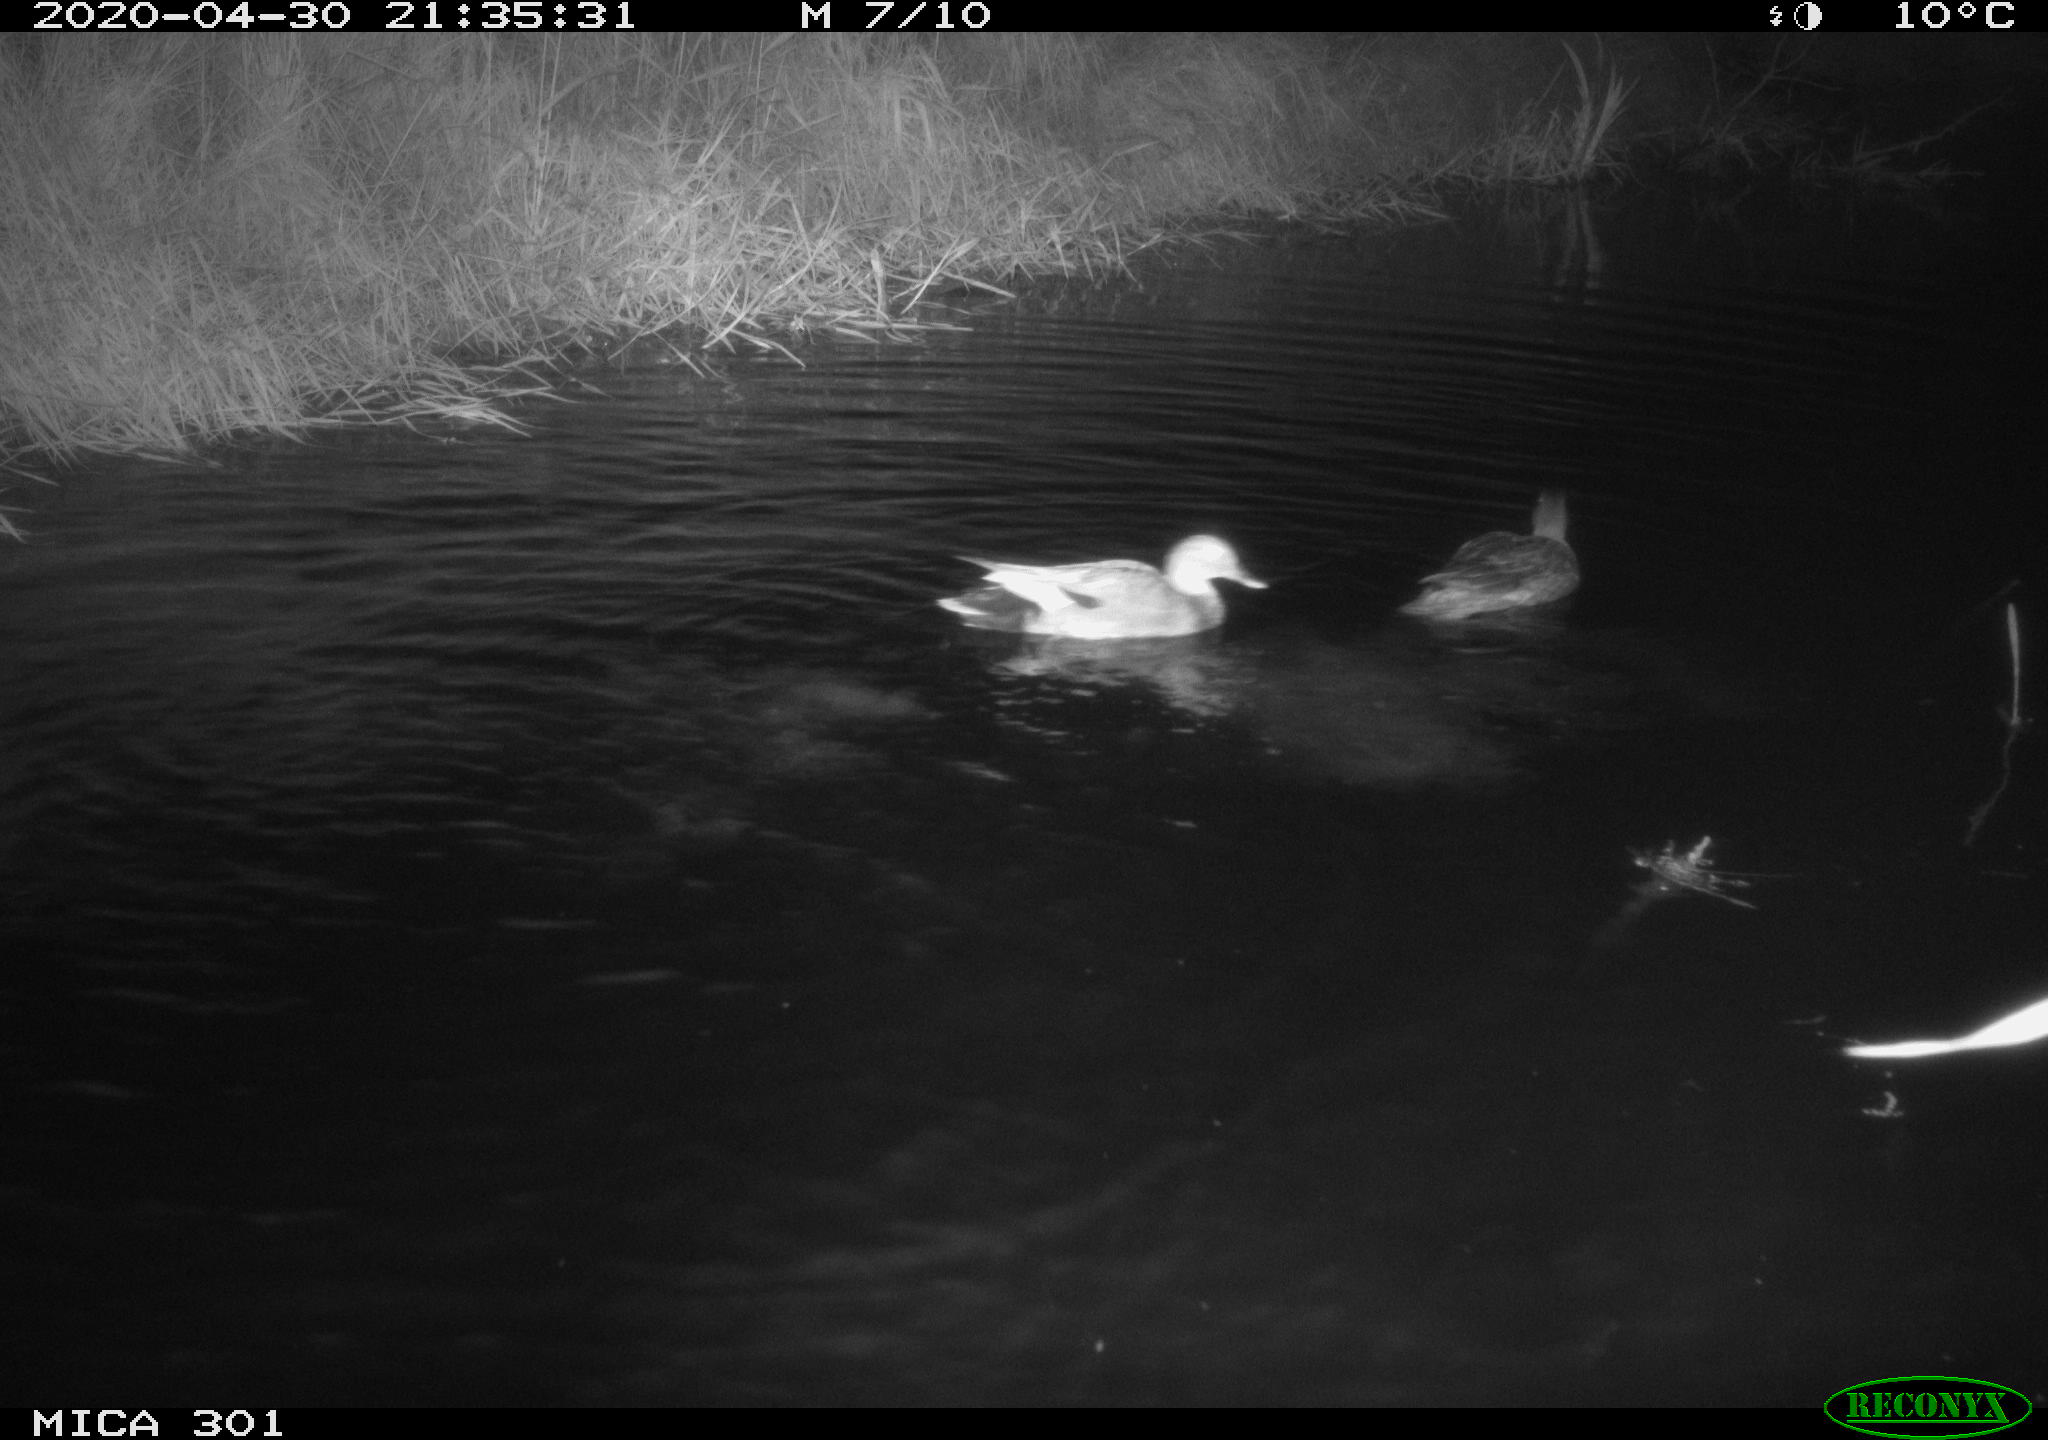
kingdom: Animalia
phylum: Chordata
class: Aves
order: Anseriformes
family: Anatidae
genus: Mareca
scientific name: Mareca strepera
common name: Gadwall
